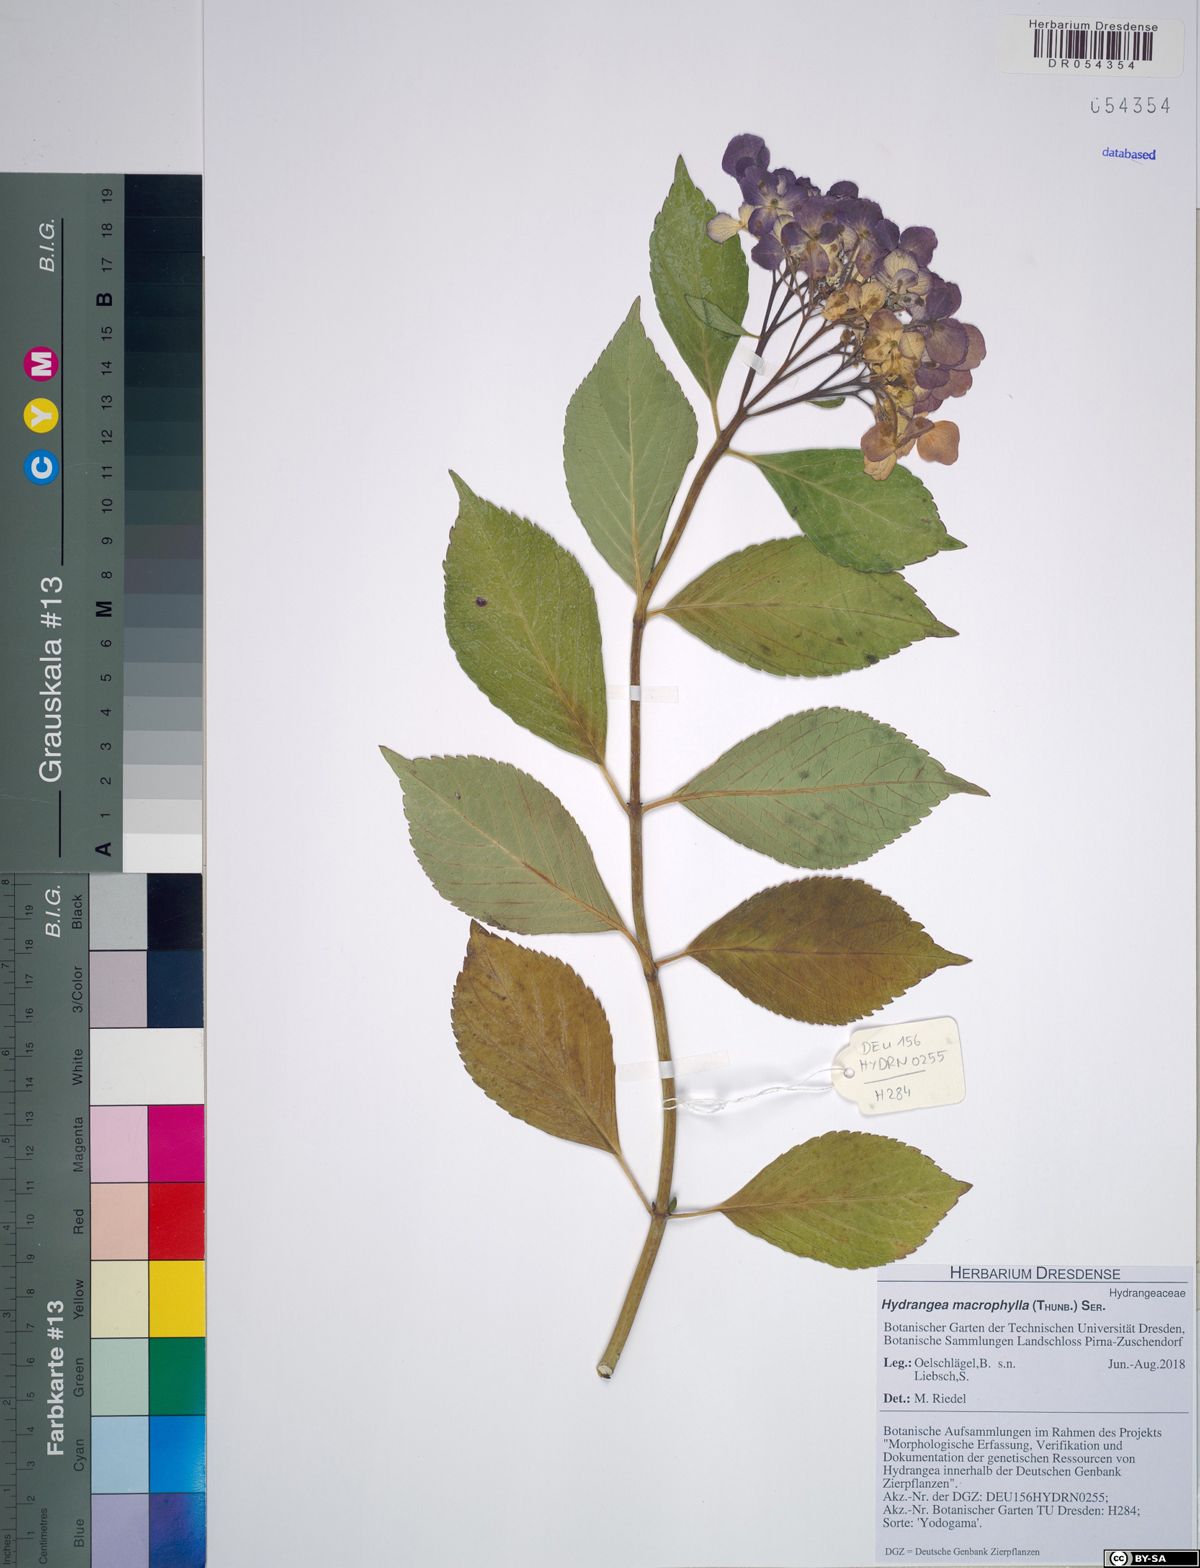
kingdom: Plantae
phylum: Tracheophyta
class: Magnoliopsida
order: Cornales
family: Hydrangeaceae
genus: Hydrangea
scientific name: Hydrangea macrophylla
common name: Hydrangea
